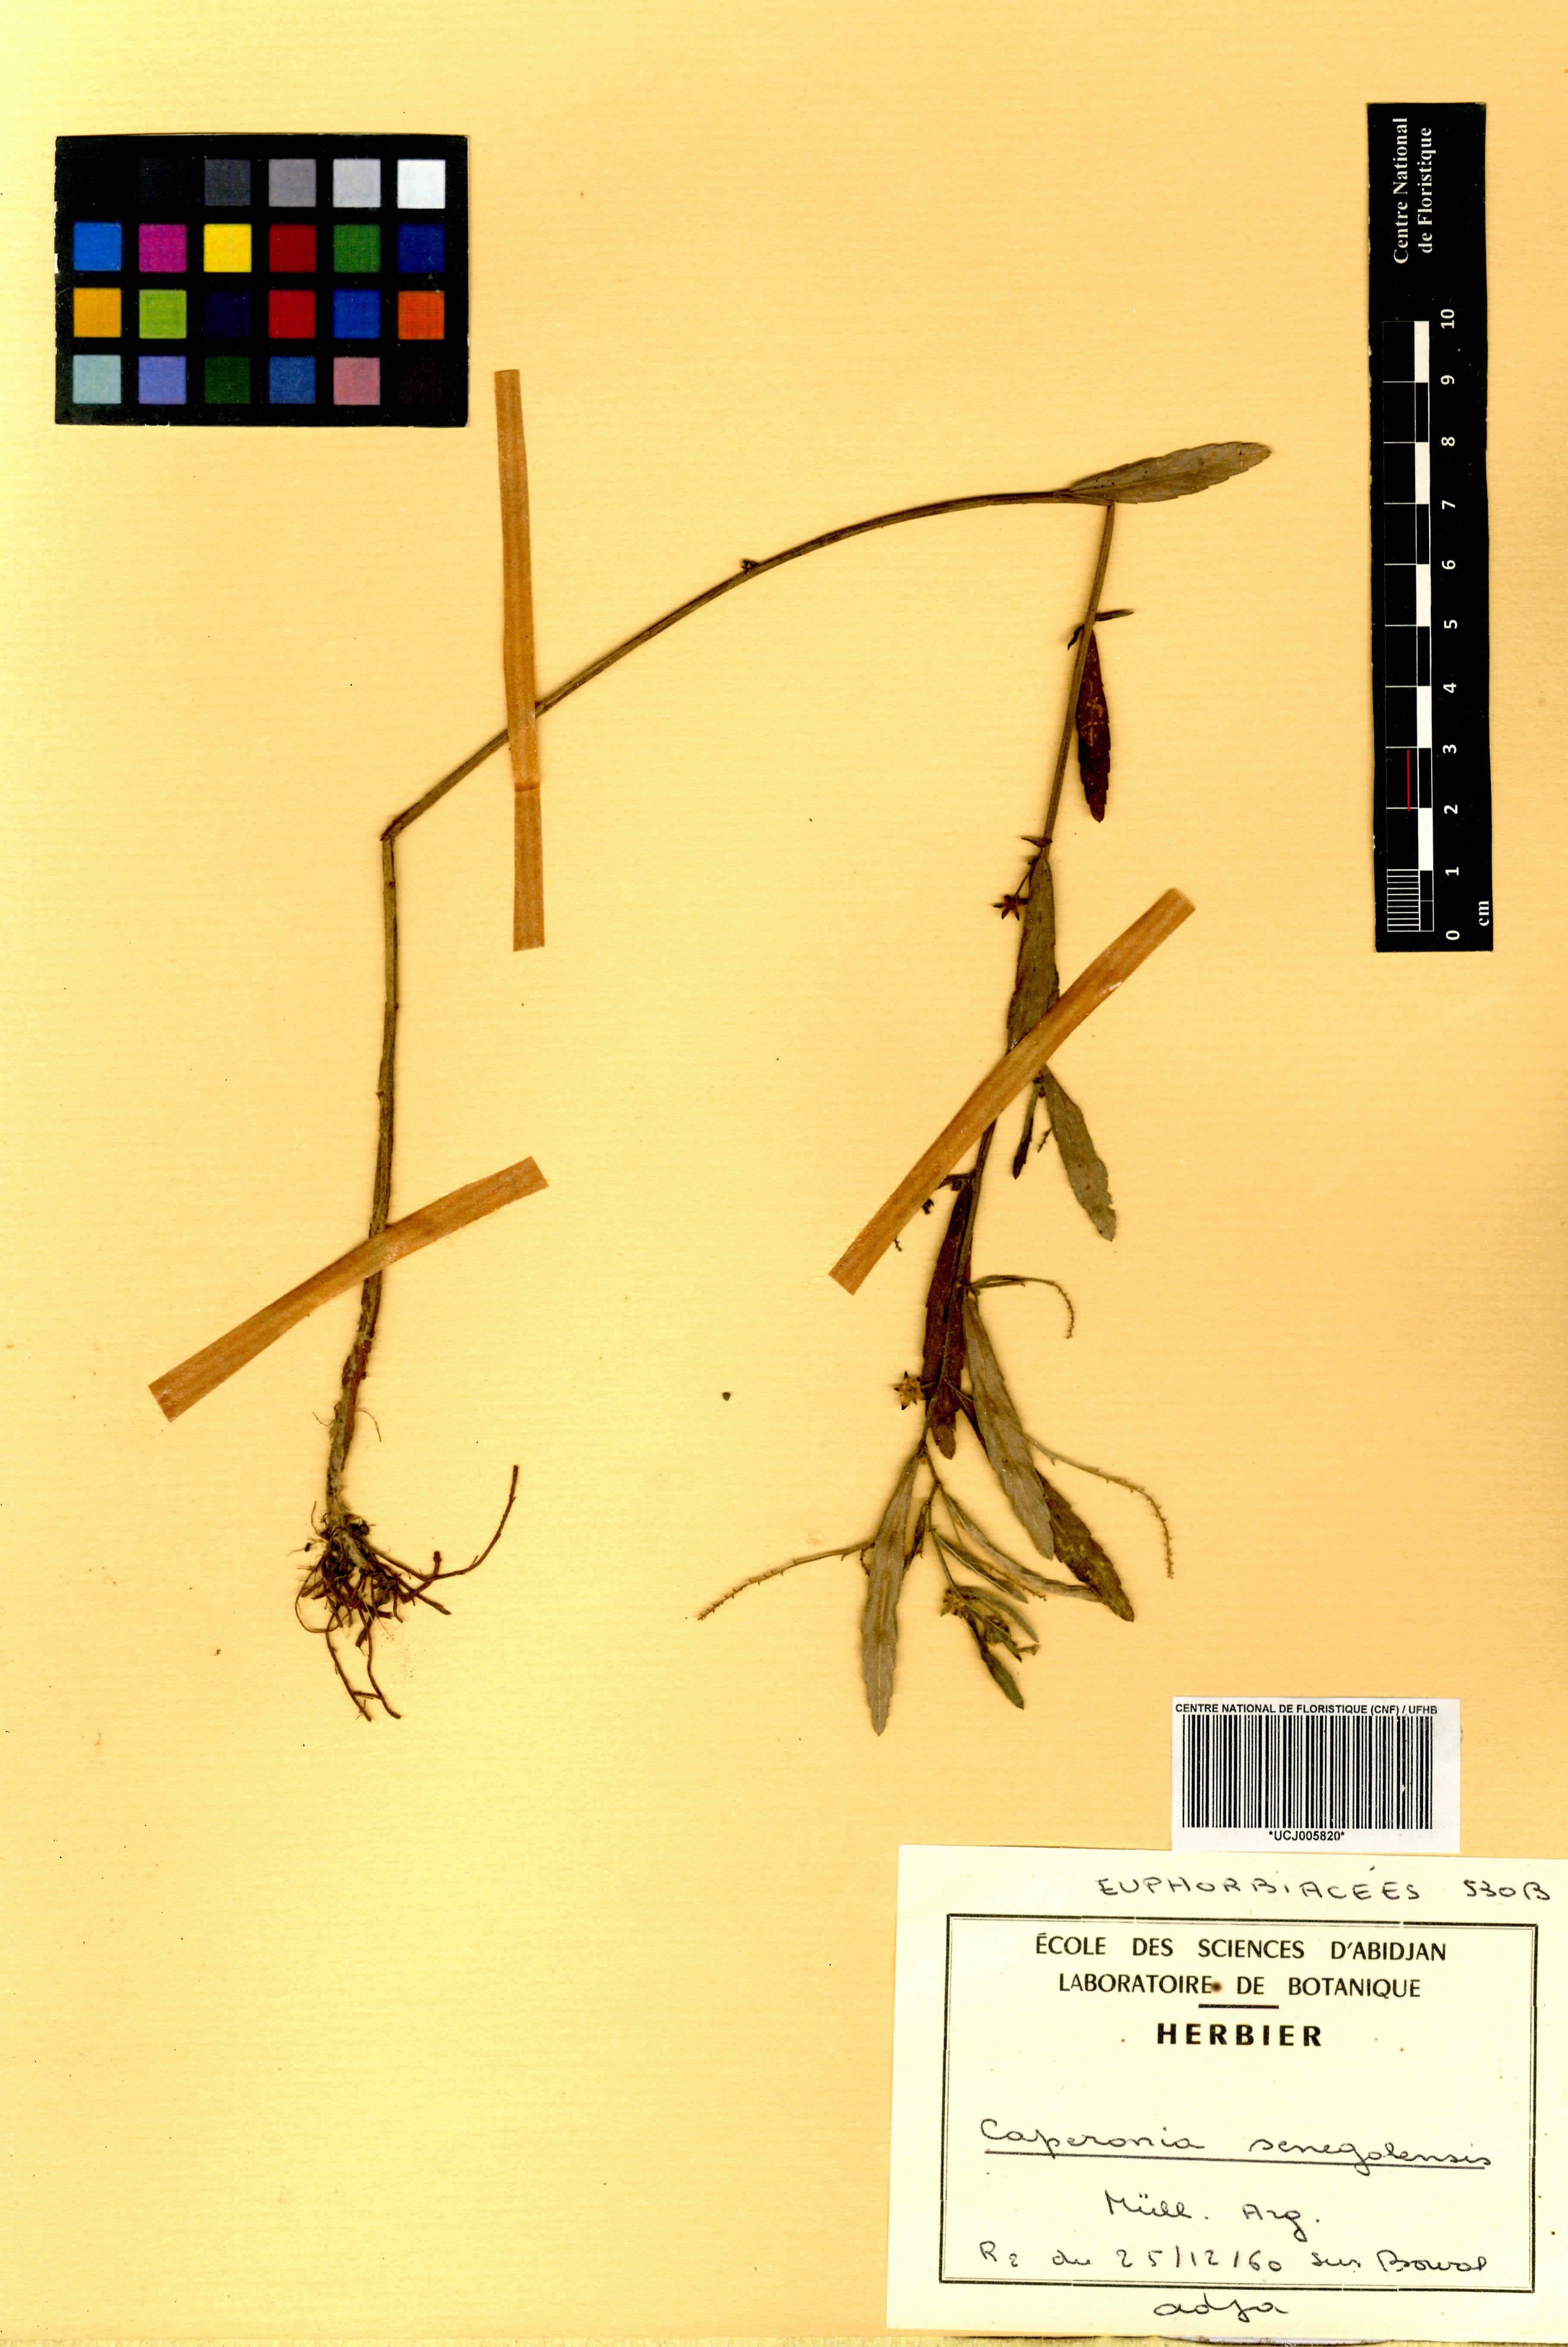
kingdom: Plantae
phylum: Tracheophyta
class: Magnoliopsida
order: Malpighiales
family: Euphorbiaceae
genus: Caperonia
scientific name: Caperonia serrata
